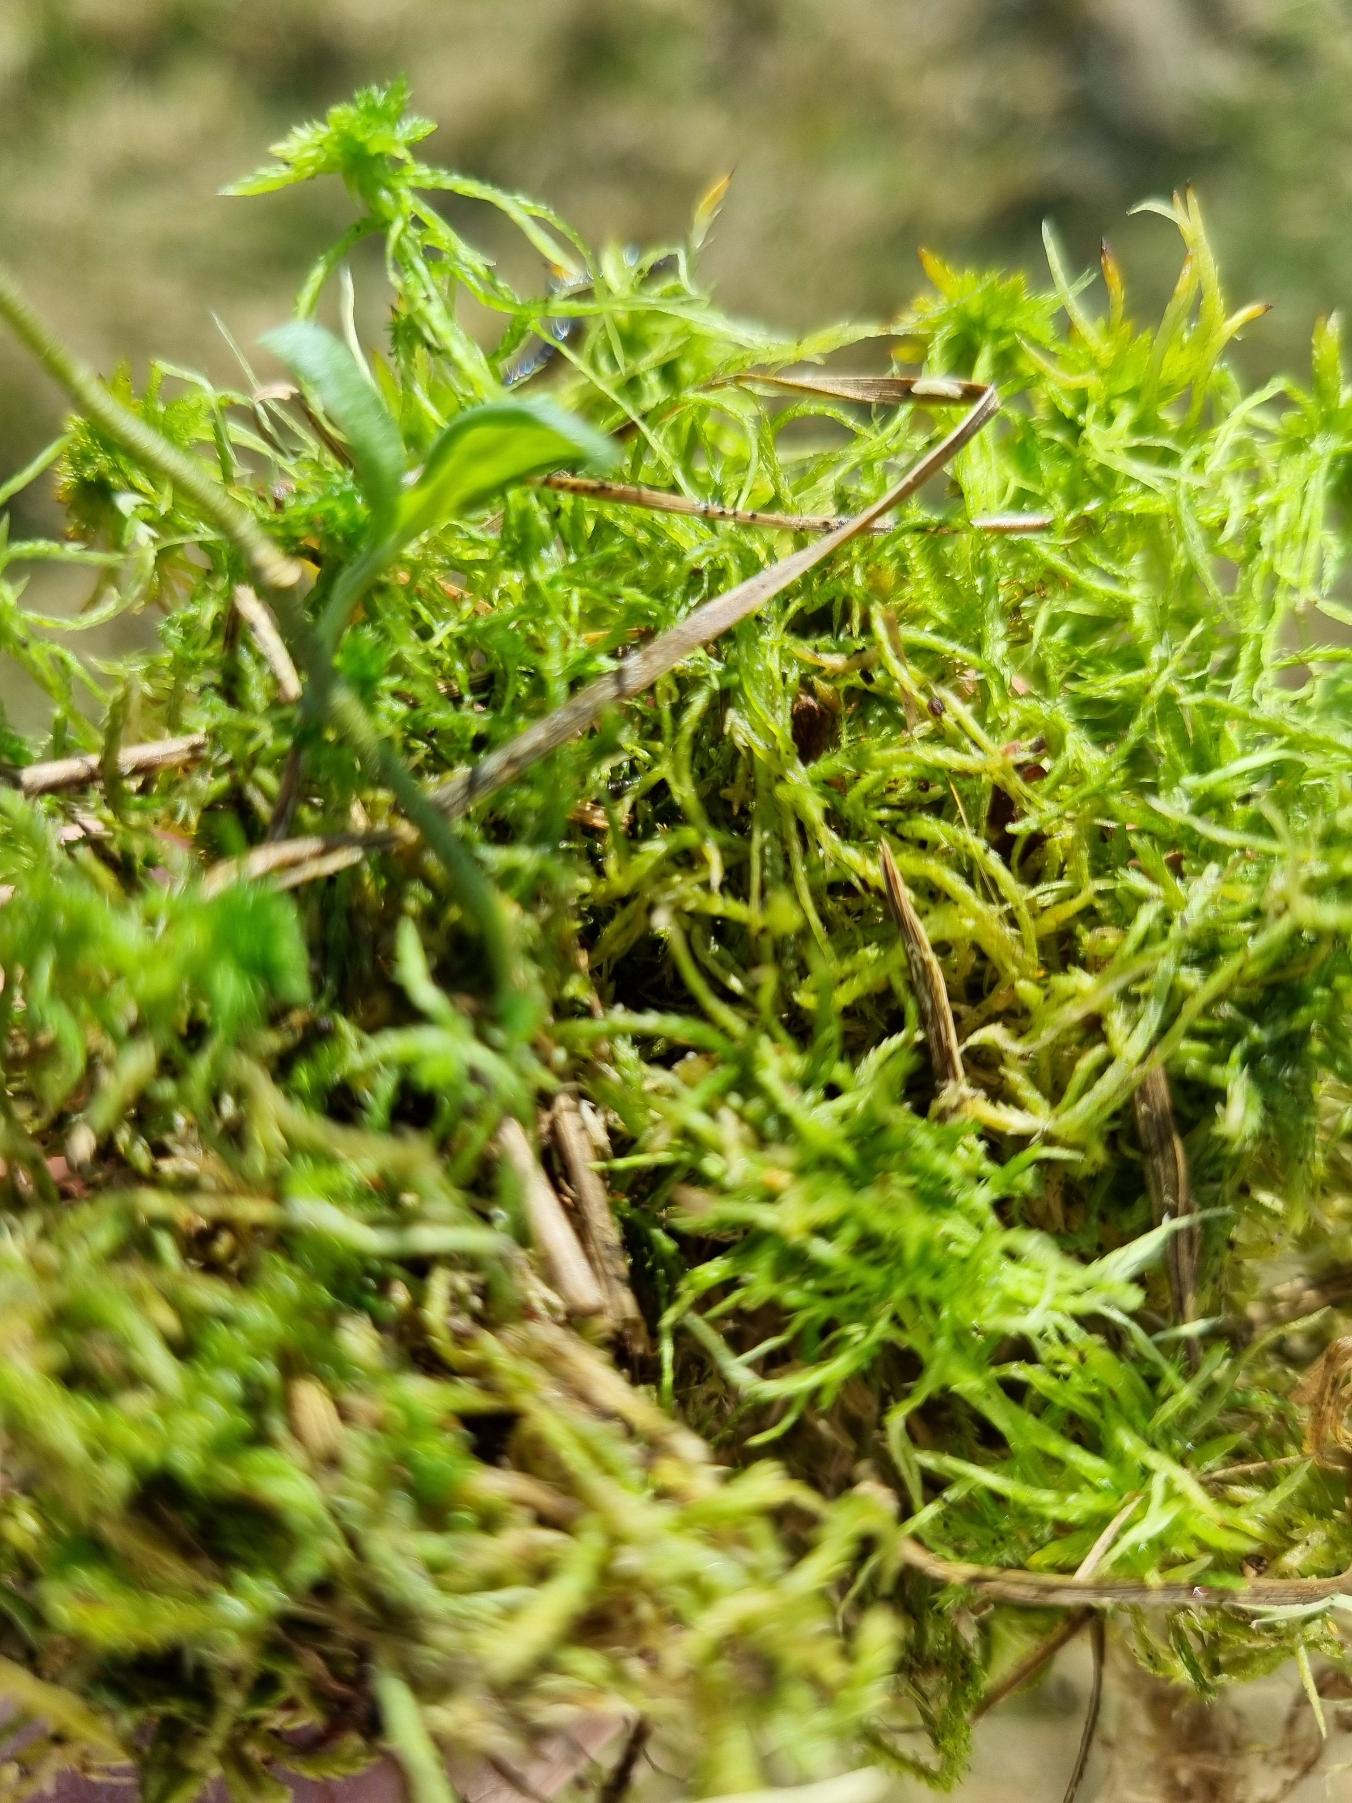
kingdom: Plantae
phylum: Bryophyta
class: Sphagnopsida
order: Sphagnales
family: Sphagnaceae
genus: Sphagnum
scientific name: Sphagnum
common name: Tørvemosslægten
